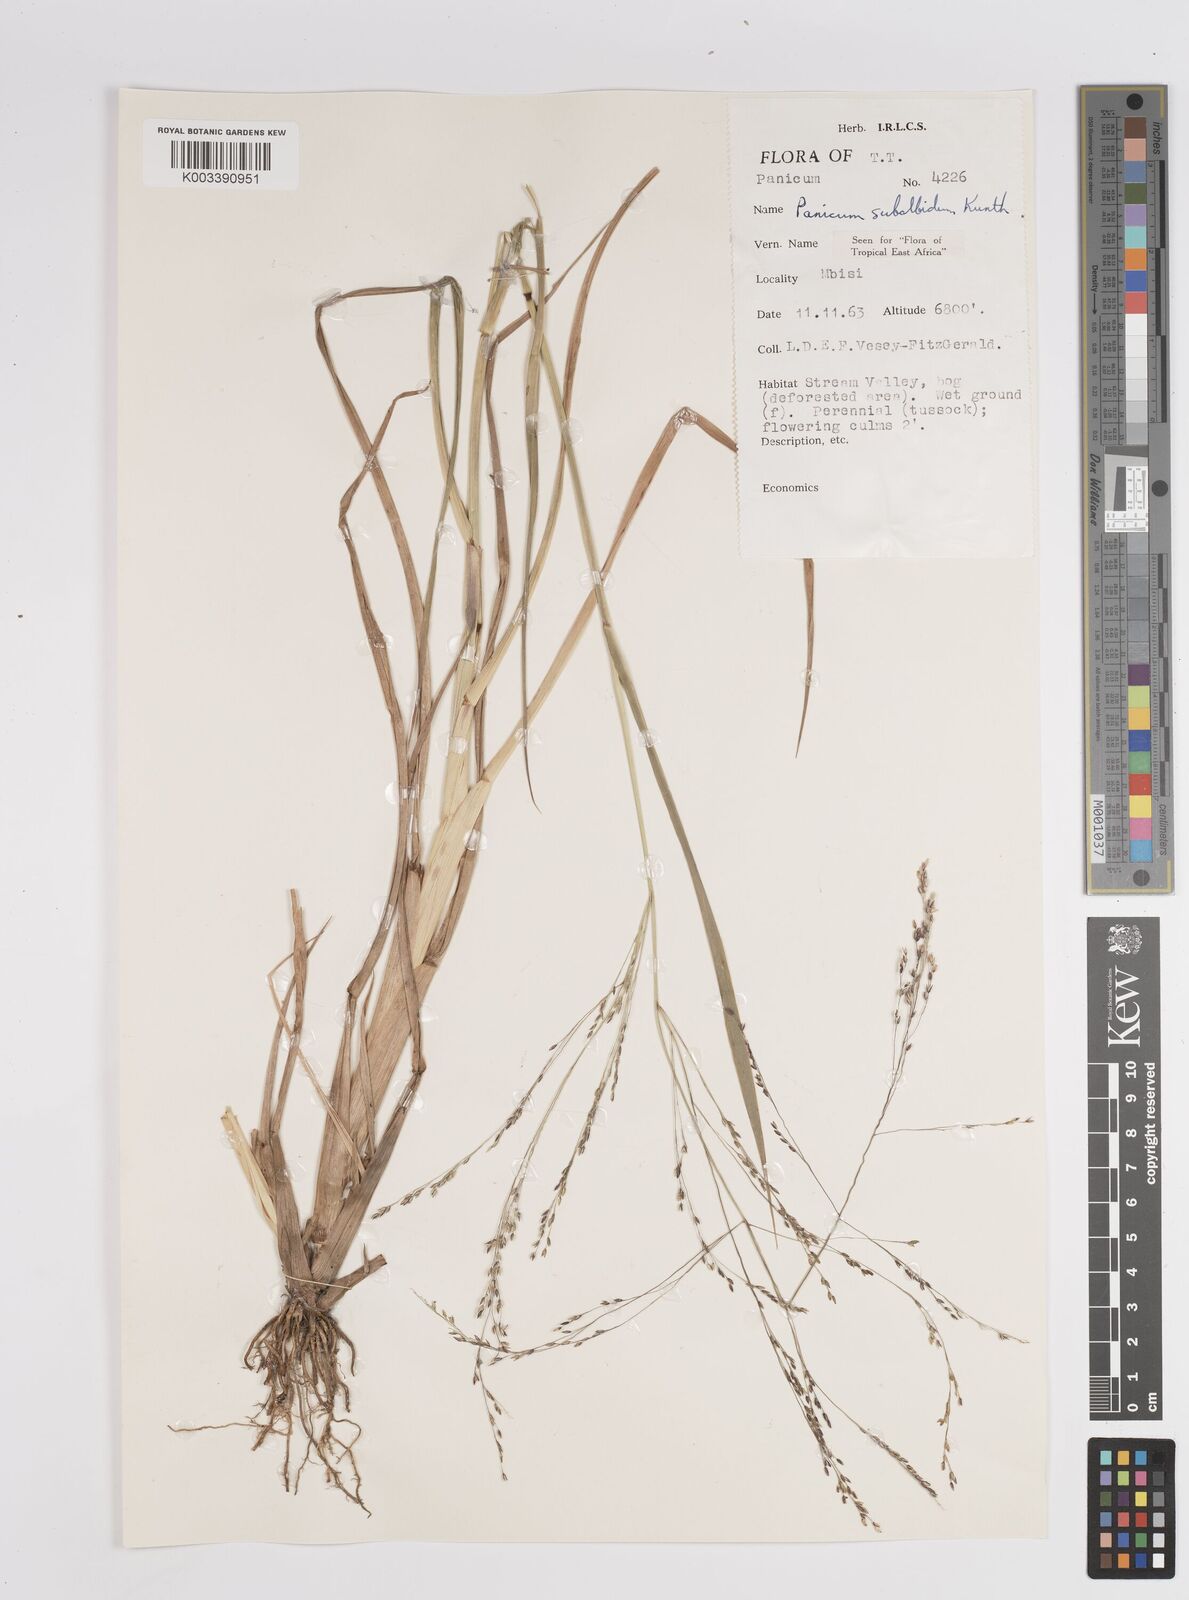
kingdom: Plantae
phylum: Tracheophyta
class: Liliopsida
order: Poales
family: Poaceae
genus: Panicum
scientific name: Panicum subalbidum
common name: Elbow buffalo grass
